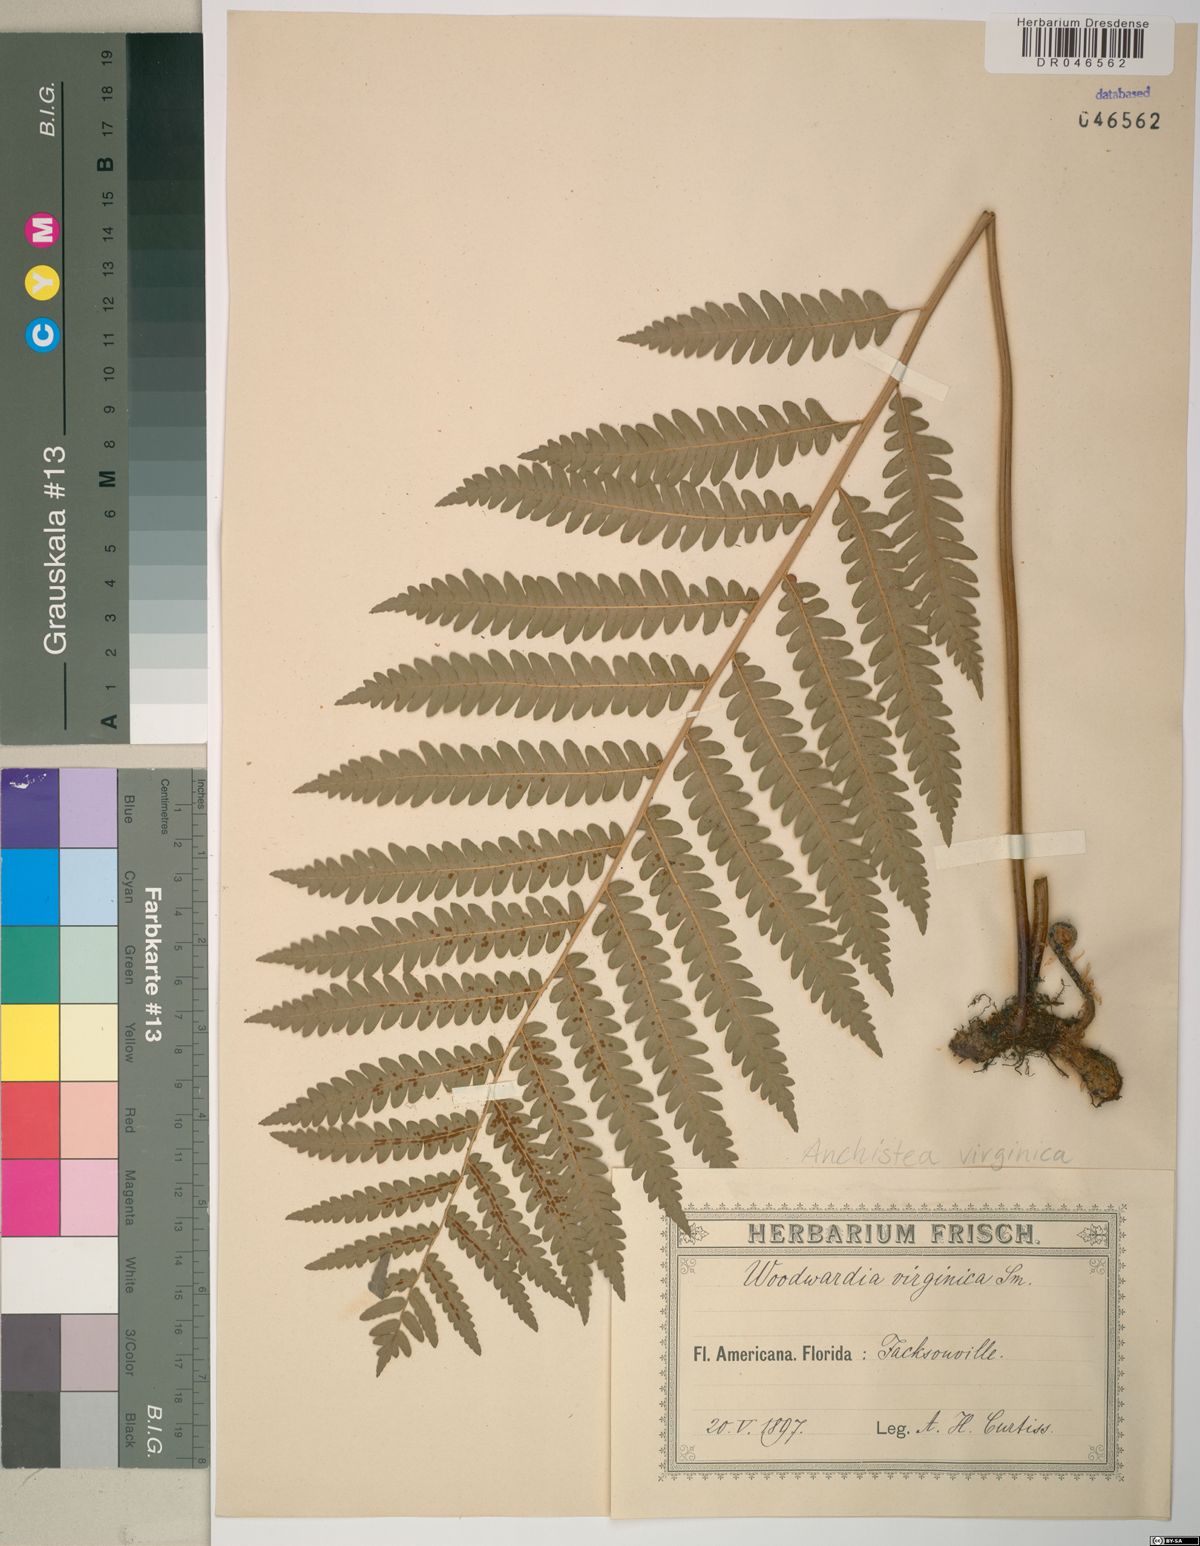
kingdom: Plantae
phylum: Tracheophyta
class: Polypodiopsida
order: Polypodiales
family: Blechnaceae
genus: Anchistea
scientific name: Anchistea virginica
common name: Virginia chain fern
